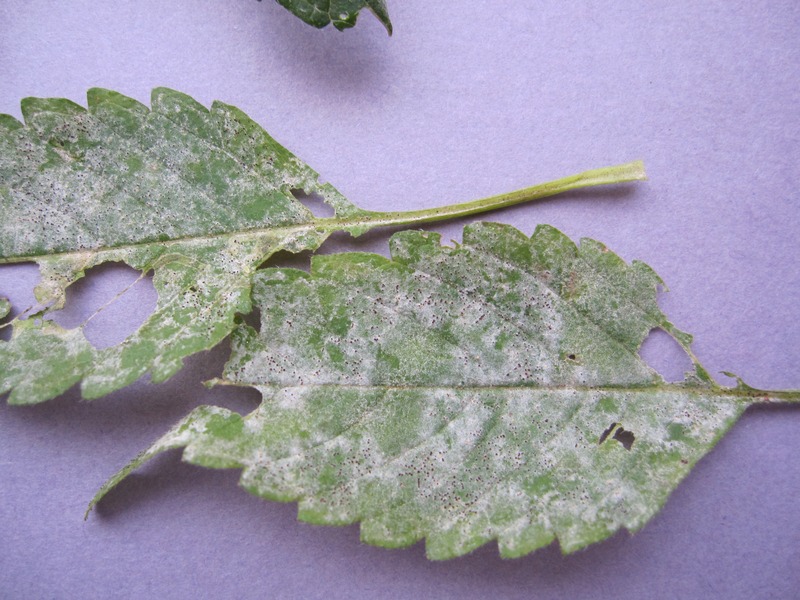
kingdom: Fungi
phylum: Ascomycota
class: Leotiomycetes
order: Helotiales
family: Erysiphaceae
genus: Neoerysiphe
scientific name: Neoerysiphe galeopsidis
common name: Mint mildew
